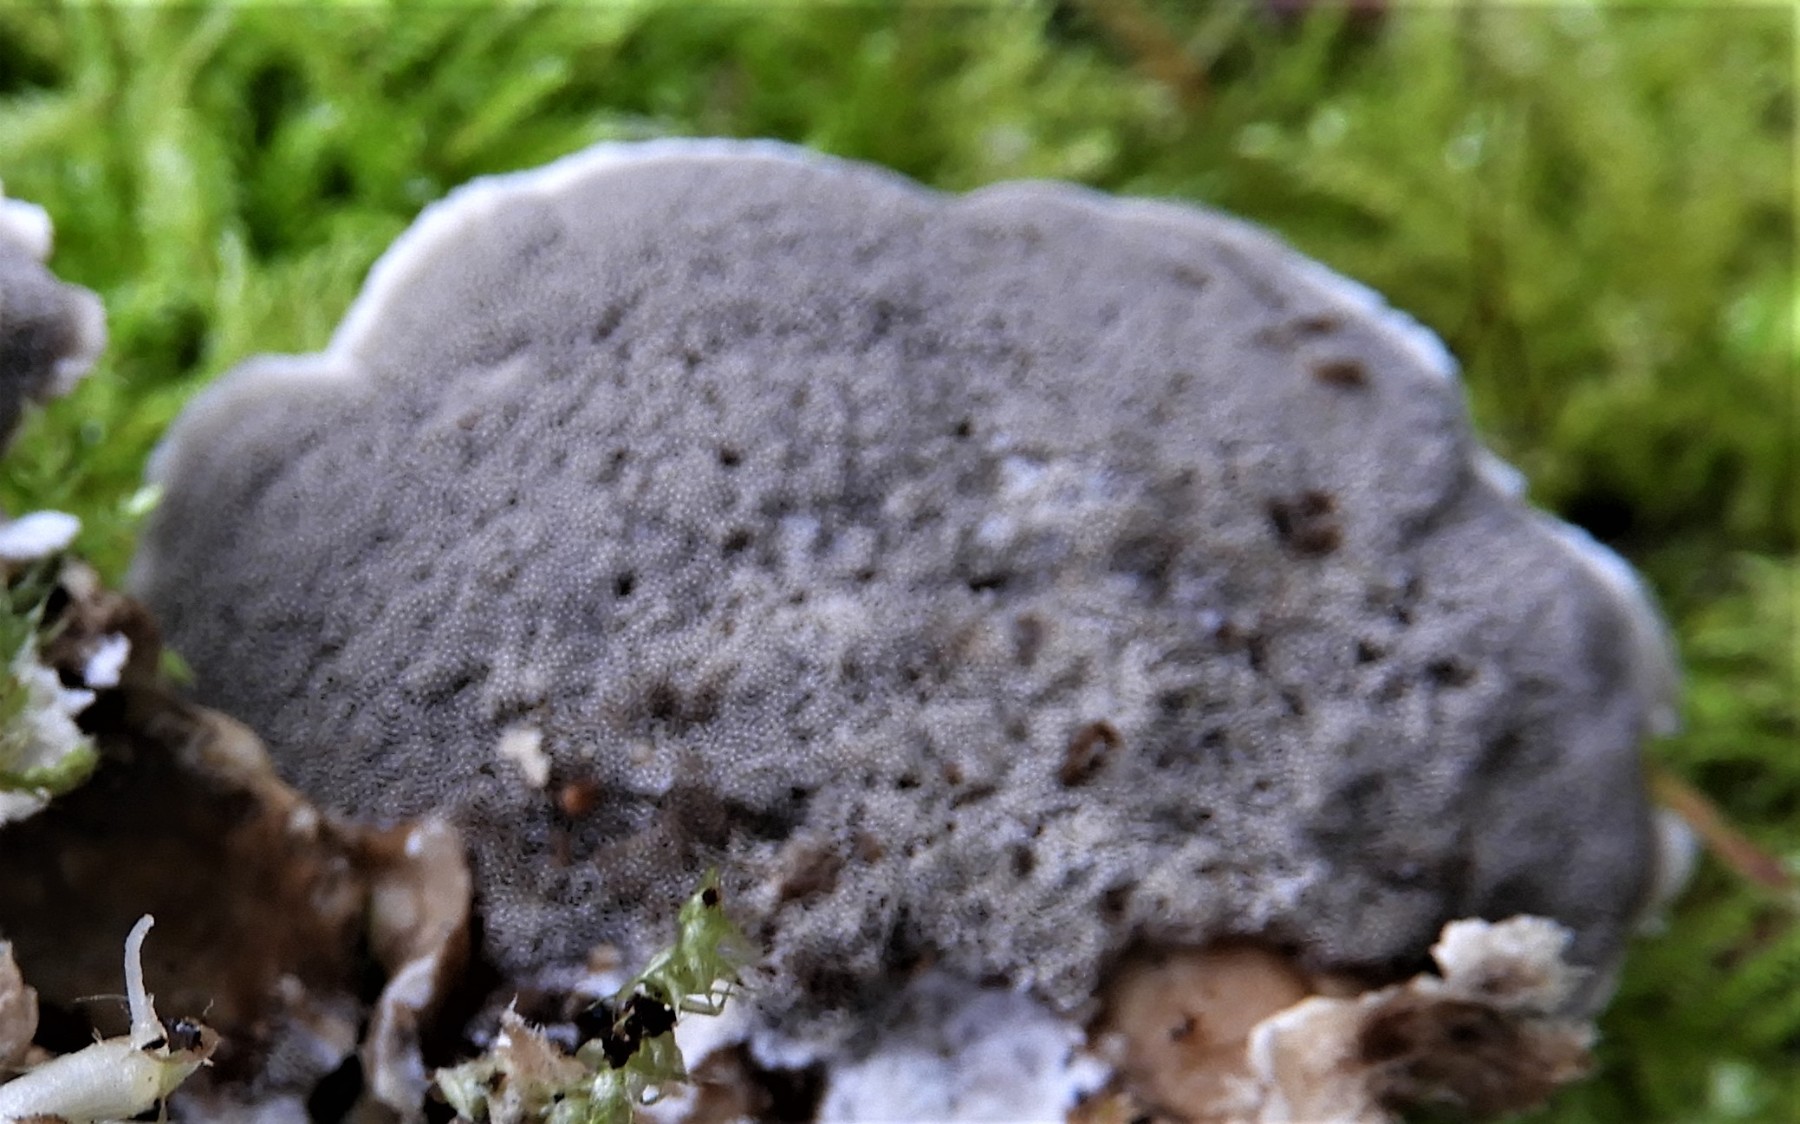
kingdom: Fungi
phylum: Basidiomycota
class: Agaricomycetes
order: Polyporales
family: Phanerochaetaceae
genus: Bjerkandera
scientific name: Bjerkandera adusta
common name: sveden sodporesvamp
